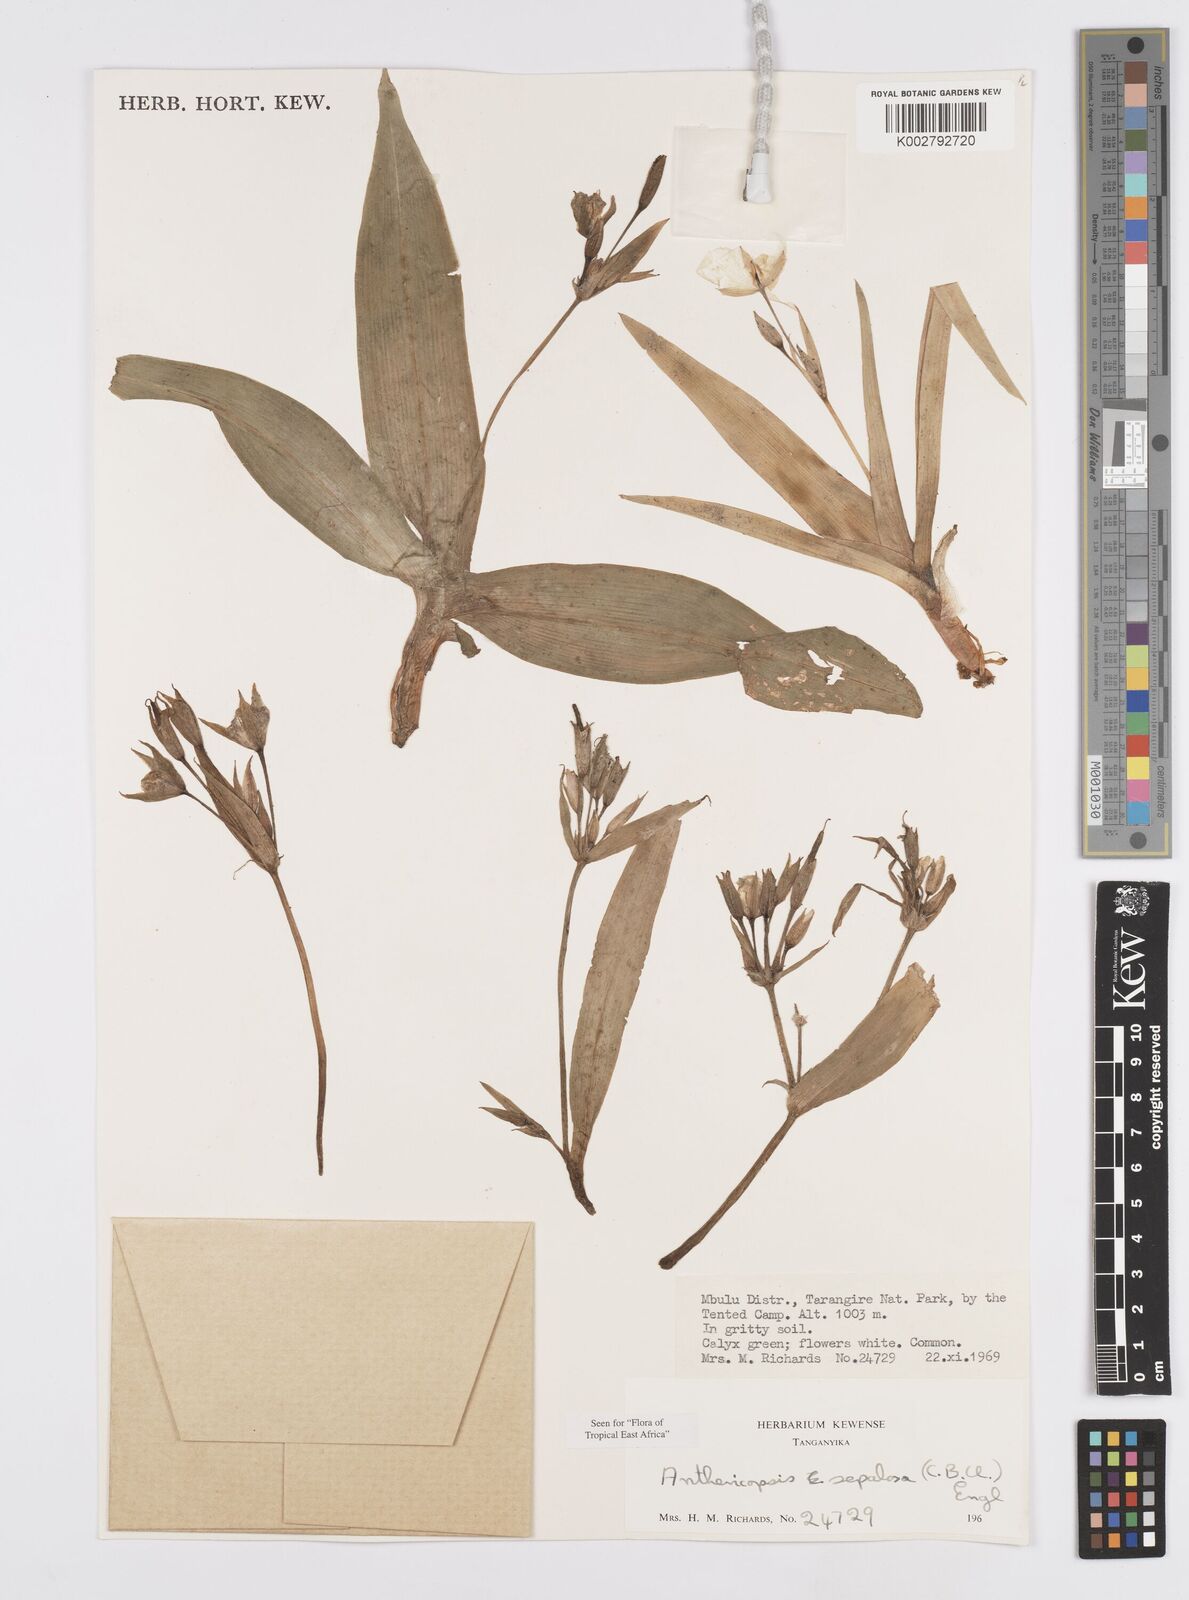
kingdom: Plantae
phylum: Tracheophyta
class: Liliopsida
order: Commelinales
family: Commelinaceae
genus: Anthericopsis
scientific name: Anthericopsis sepalosa
